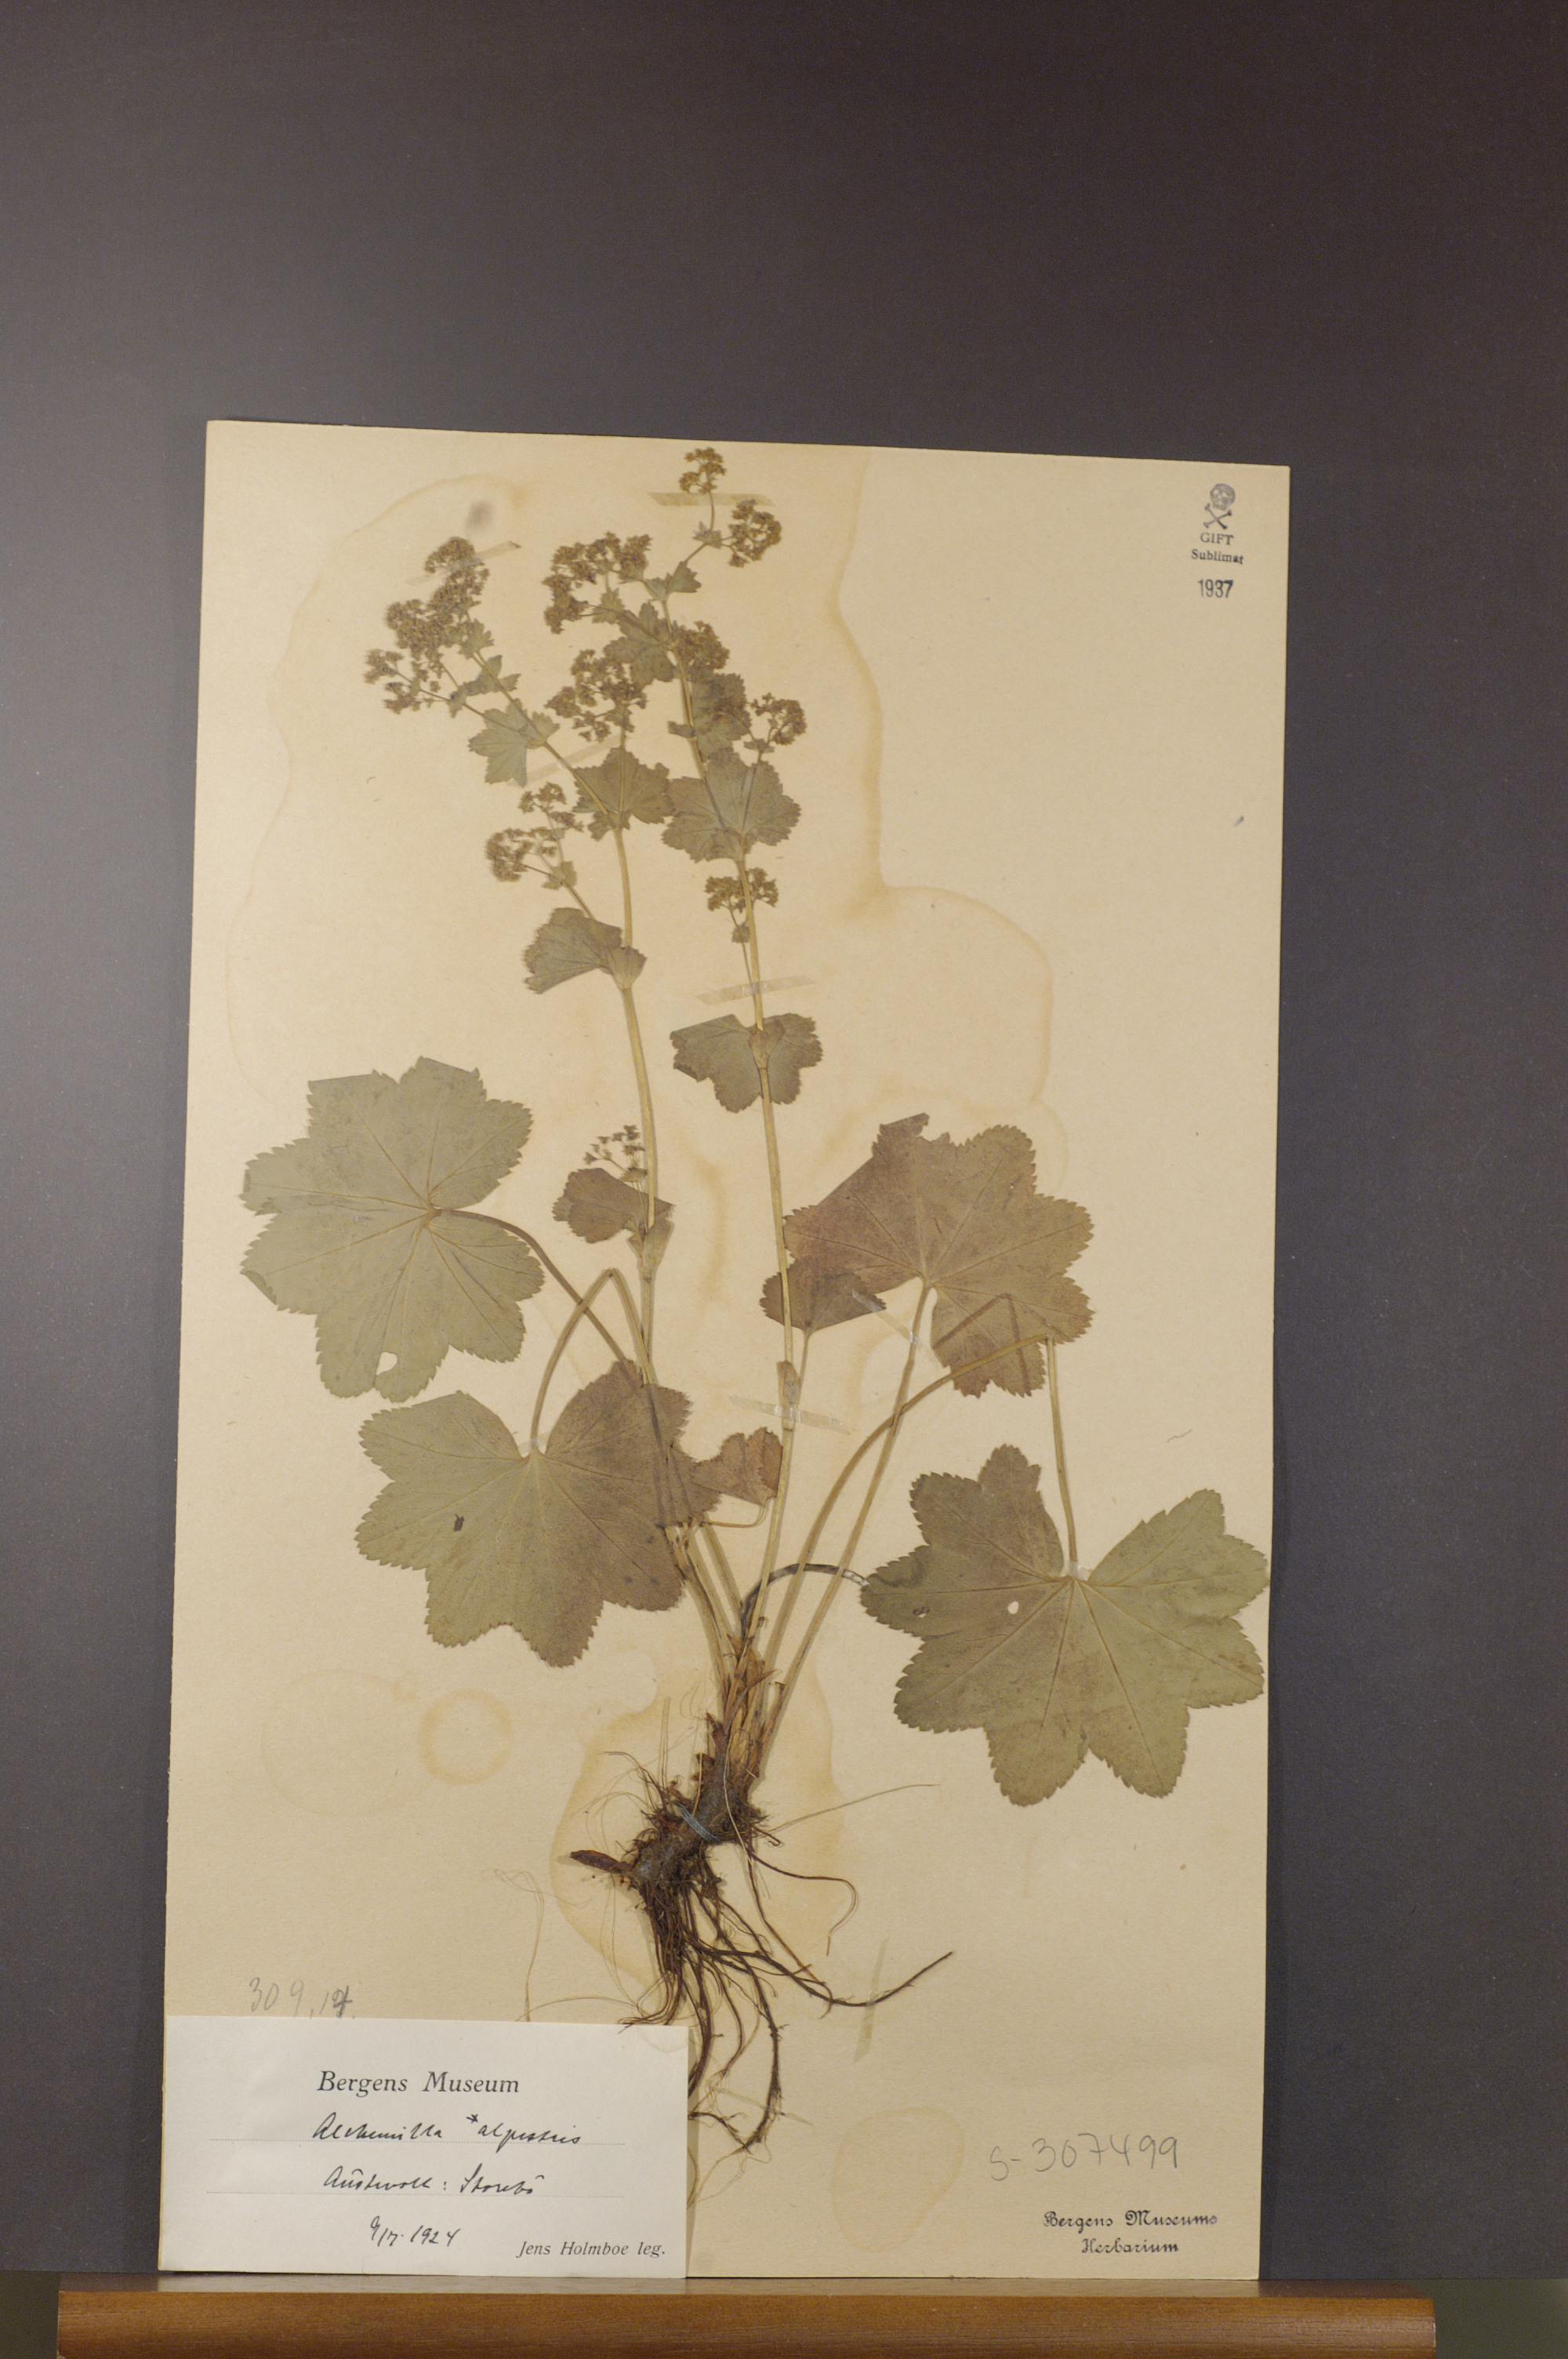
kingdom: Plantae
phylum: Tracheophyta
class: Magnoliopsida
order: Rosales
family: Rosaceae
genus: Alchemilla
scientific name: Alchemilla glabra
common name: Smooth lady's-mantle
